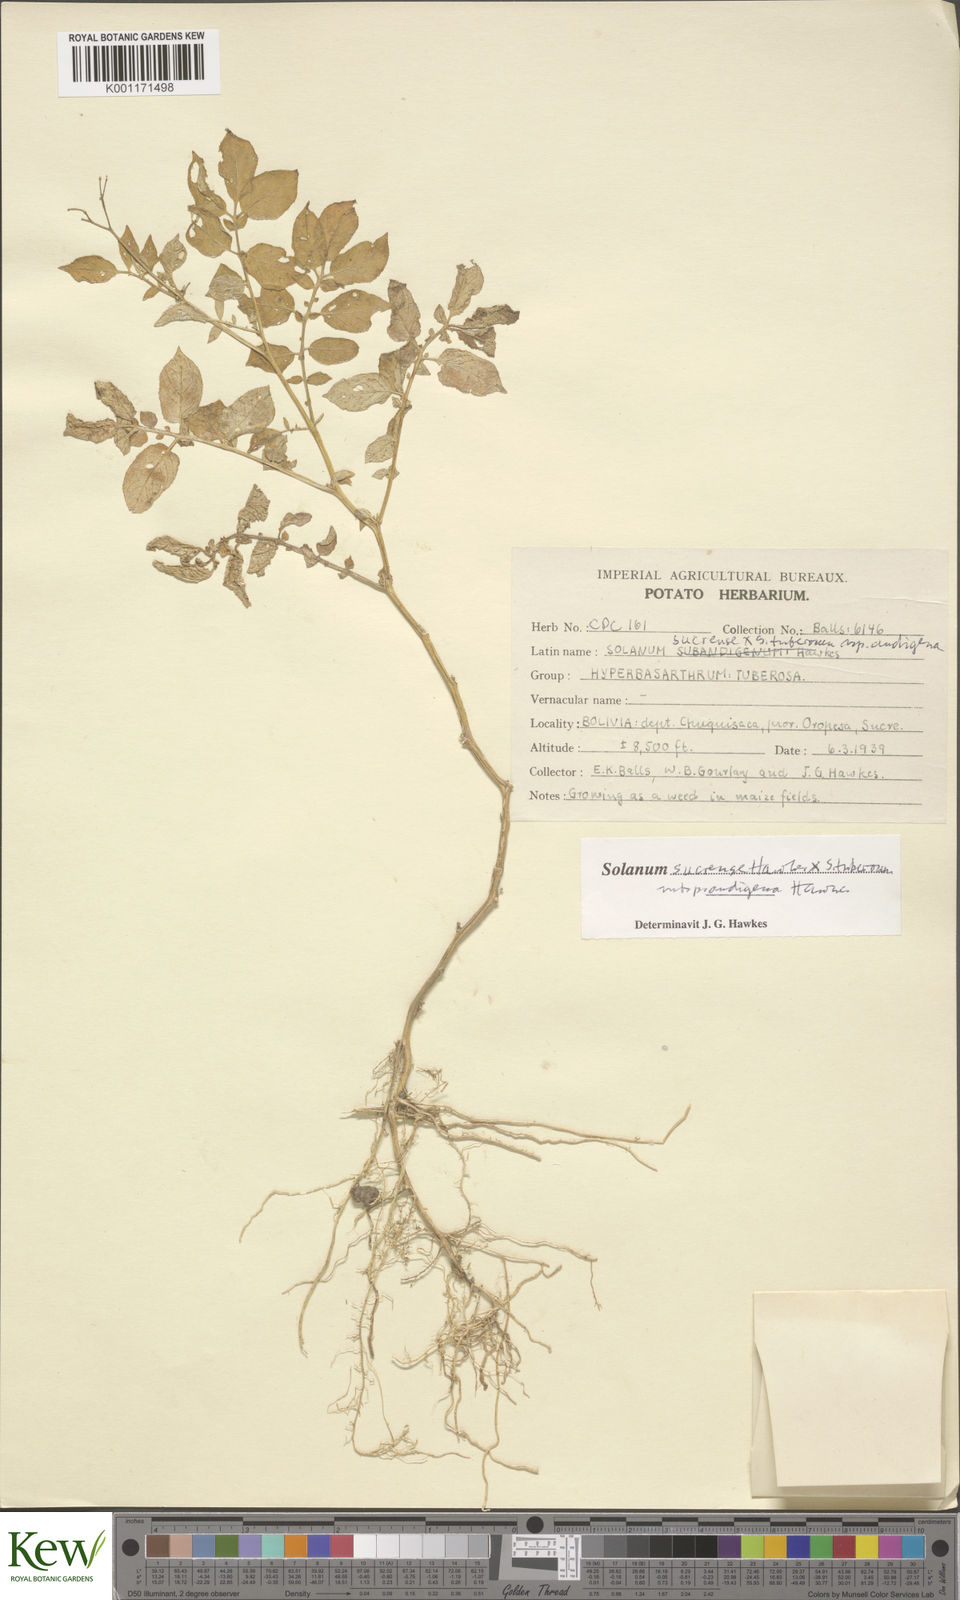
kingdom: Plantae
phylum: Tracheophyta
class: Magnoliopsida
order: Solanales
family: Solanaceae
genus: Solanum
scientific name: Solanum tuberosum
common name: Potato
